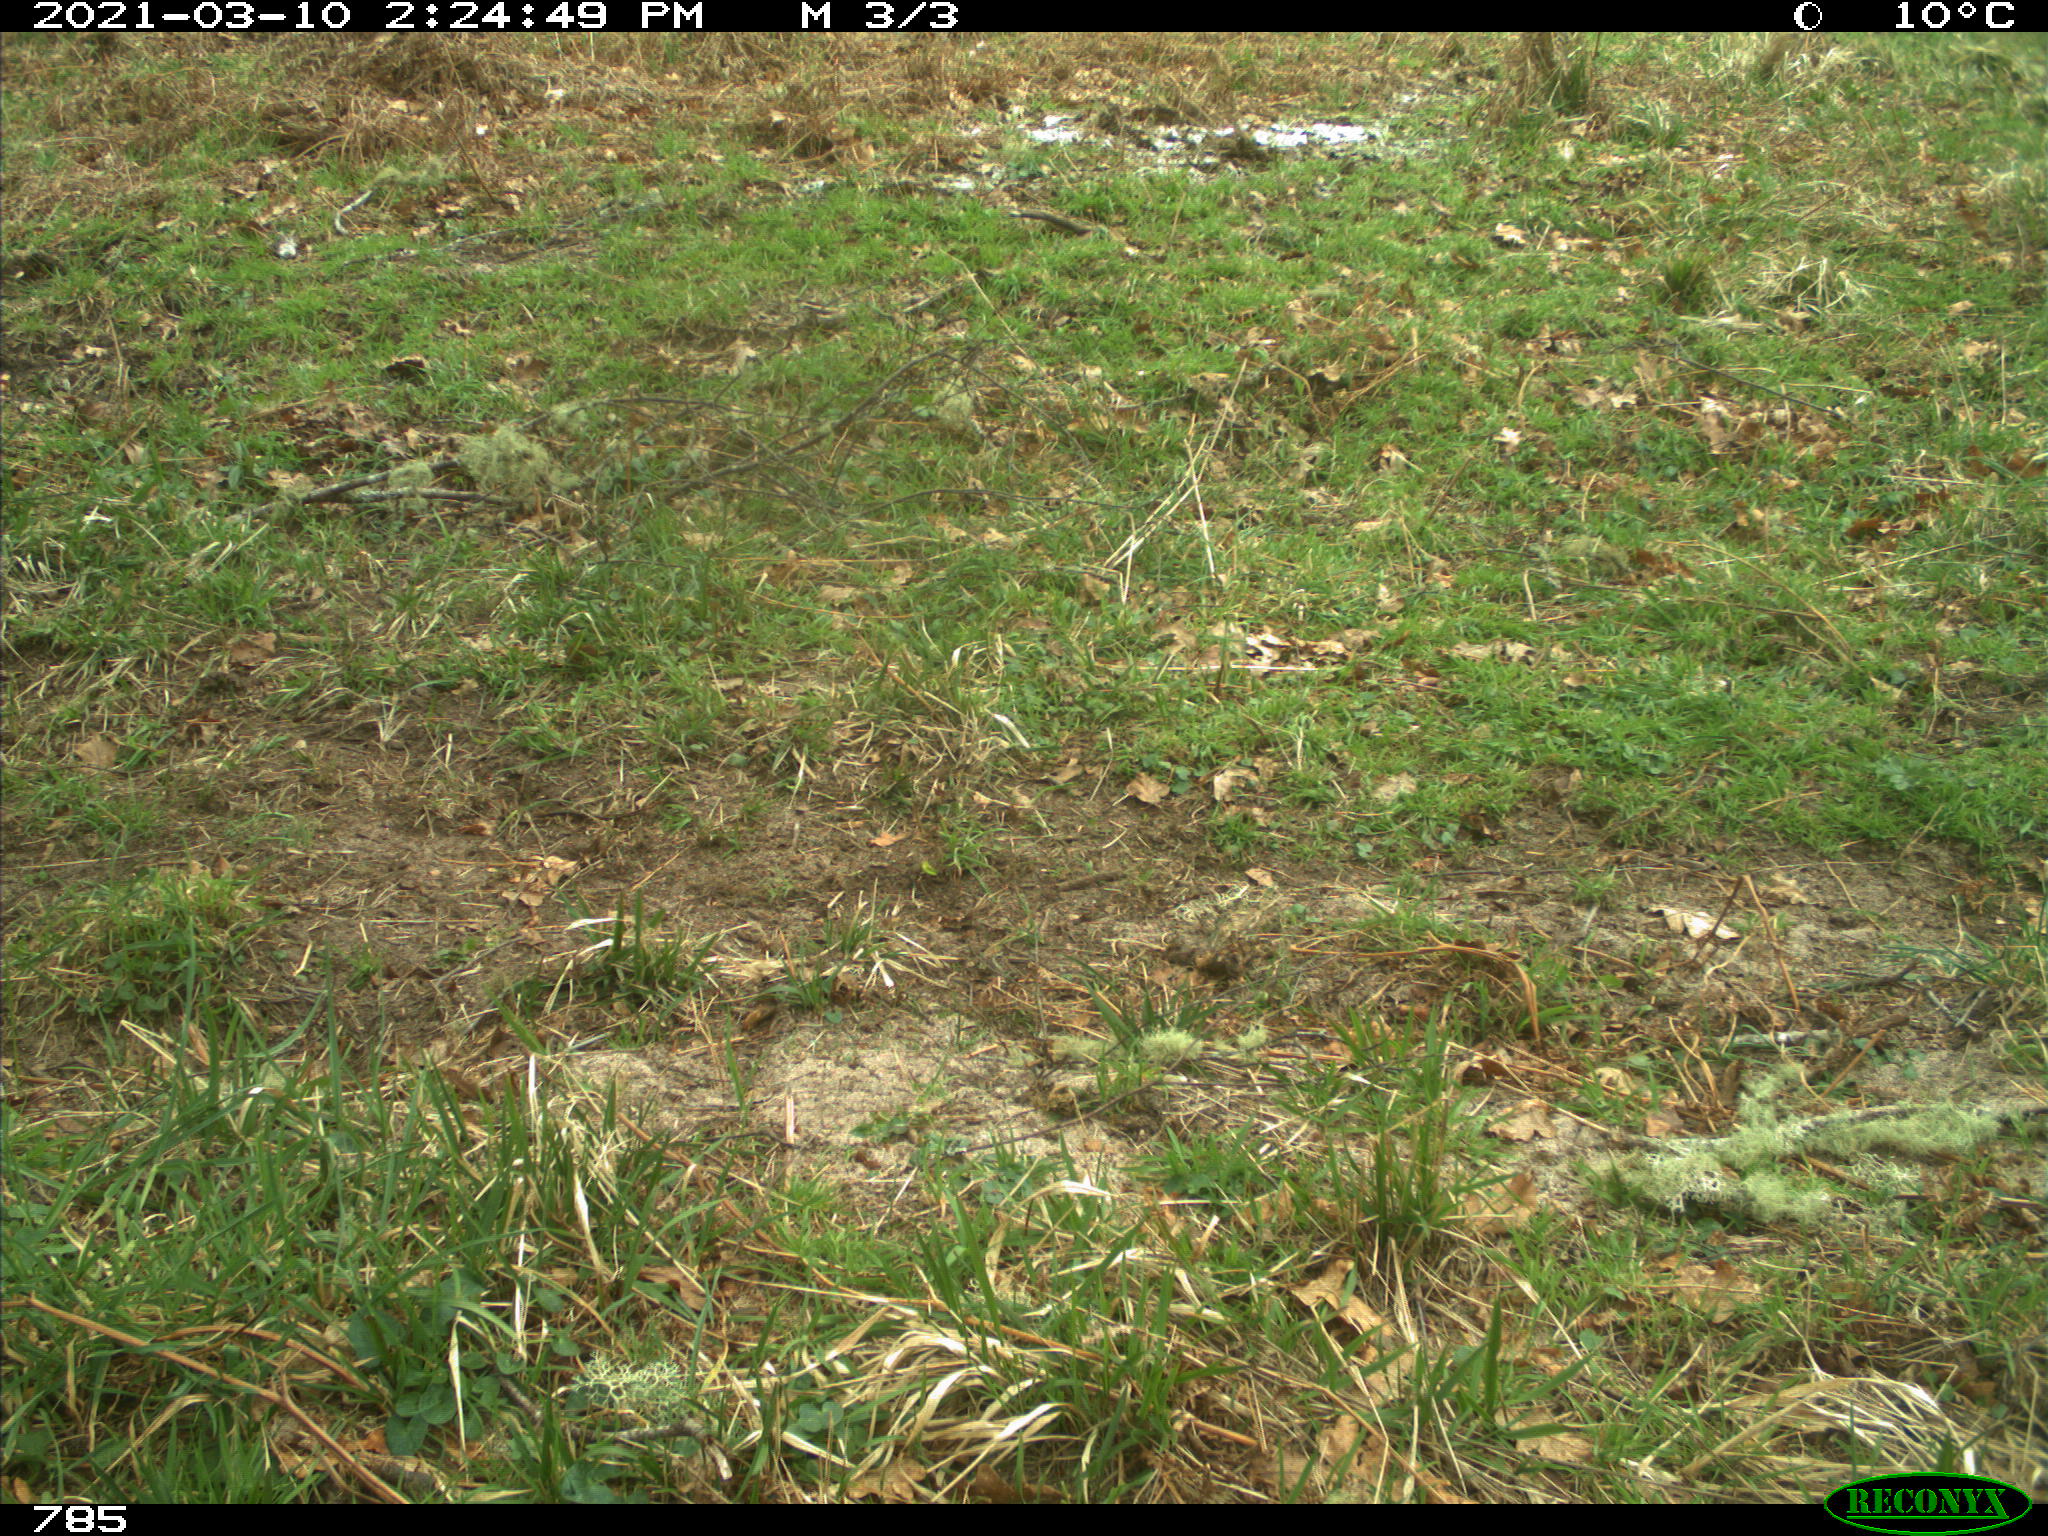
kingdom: Animalia
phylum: Chordata
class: Mammalia
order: Perissodactyla
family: Equidae
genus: Equus
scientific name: Equus caballus
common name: Horse
